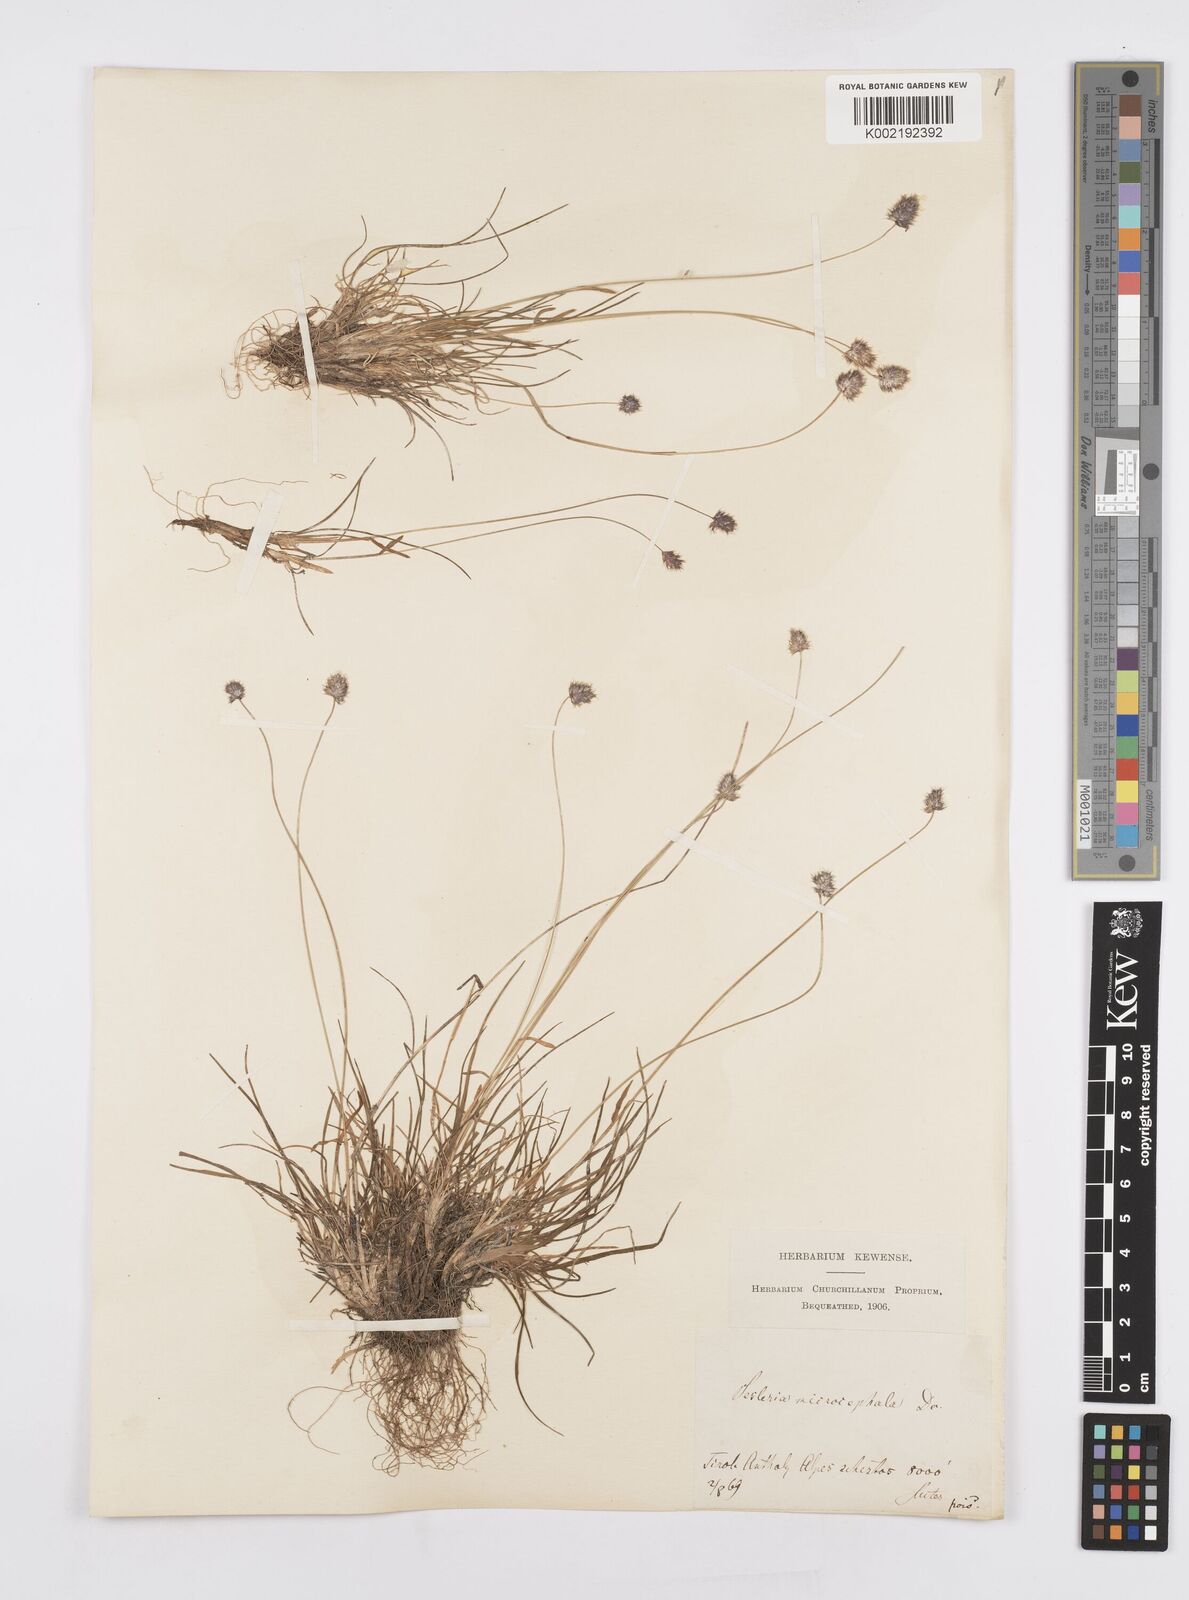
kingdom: Plantae
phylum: Tracheophyta
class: Liliopsida
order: Poales
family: Poaceae
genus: Psilathera
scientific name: Psilathera ovata
